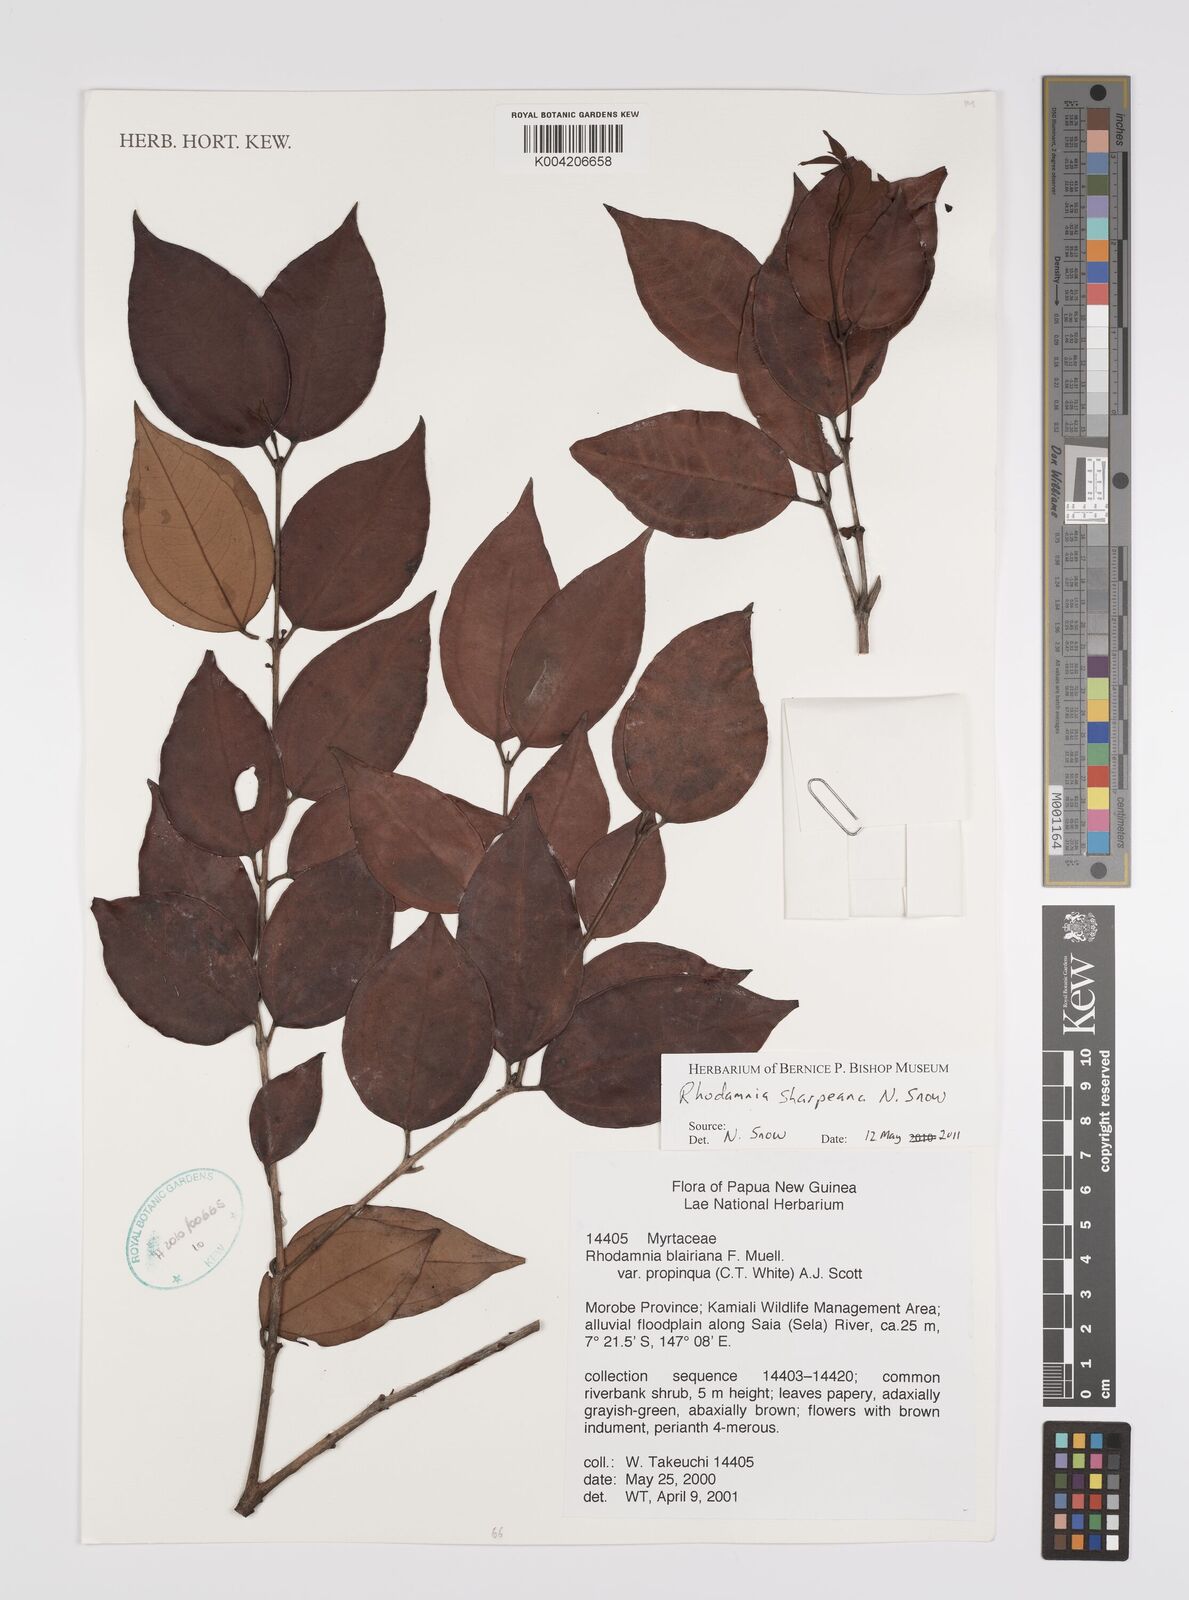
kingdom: Plantae
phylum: Tracheophyta
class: Magnoliopsida
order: Myrtales
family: Myrtaceae
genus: Rhodamnia
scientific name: Rhodamnia sharpeana
